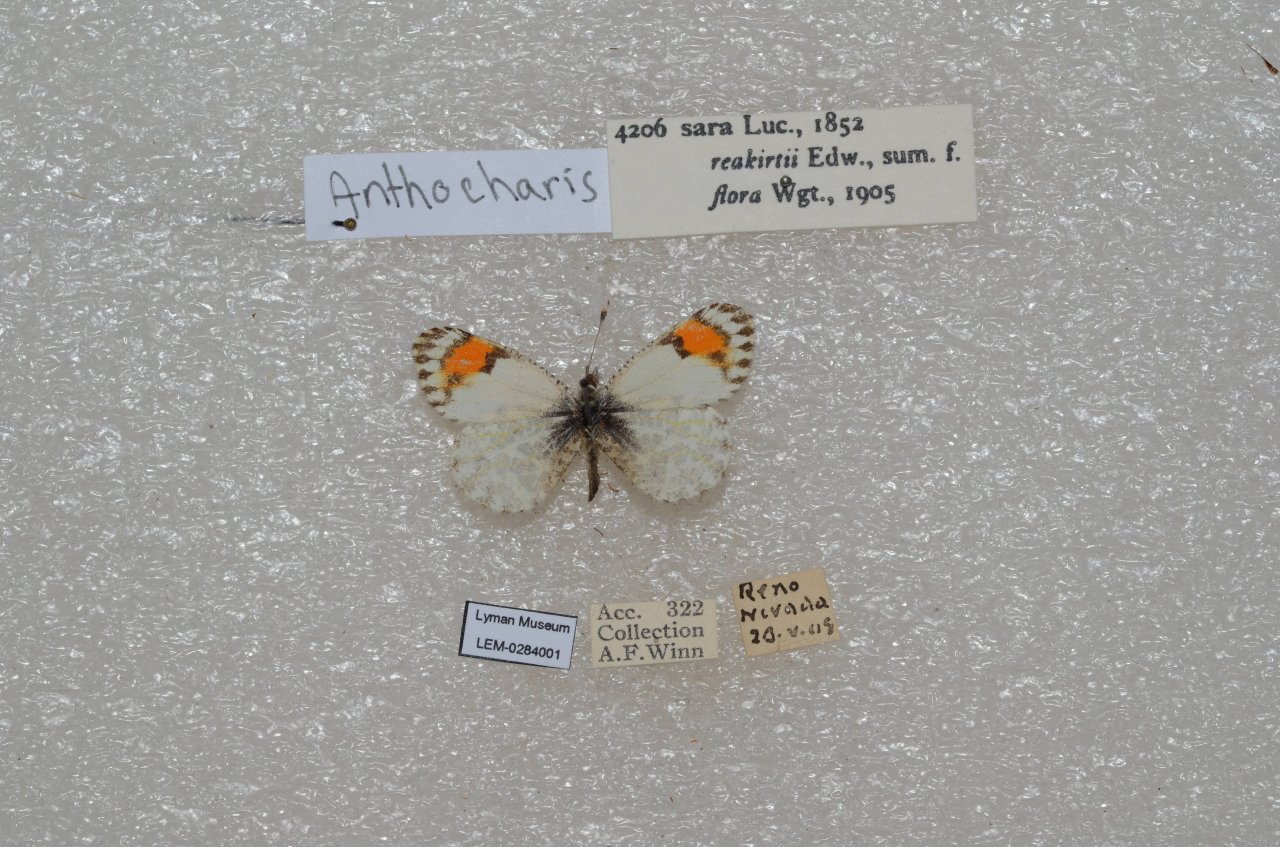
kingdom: Animalia
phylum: Arthropoda
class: Insecta
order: Lepidoptera
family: Pieridae
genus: Anthocharis
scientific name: Anthocharis sara
